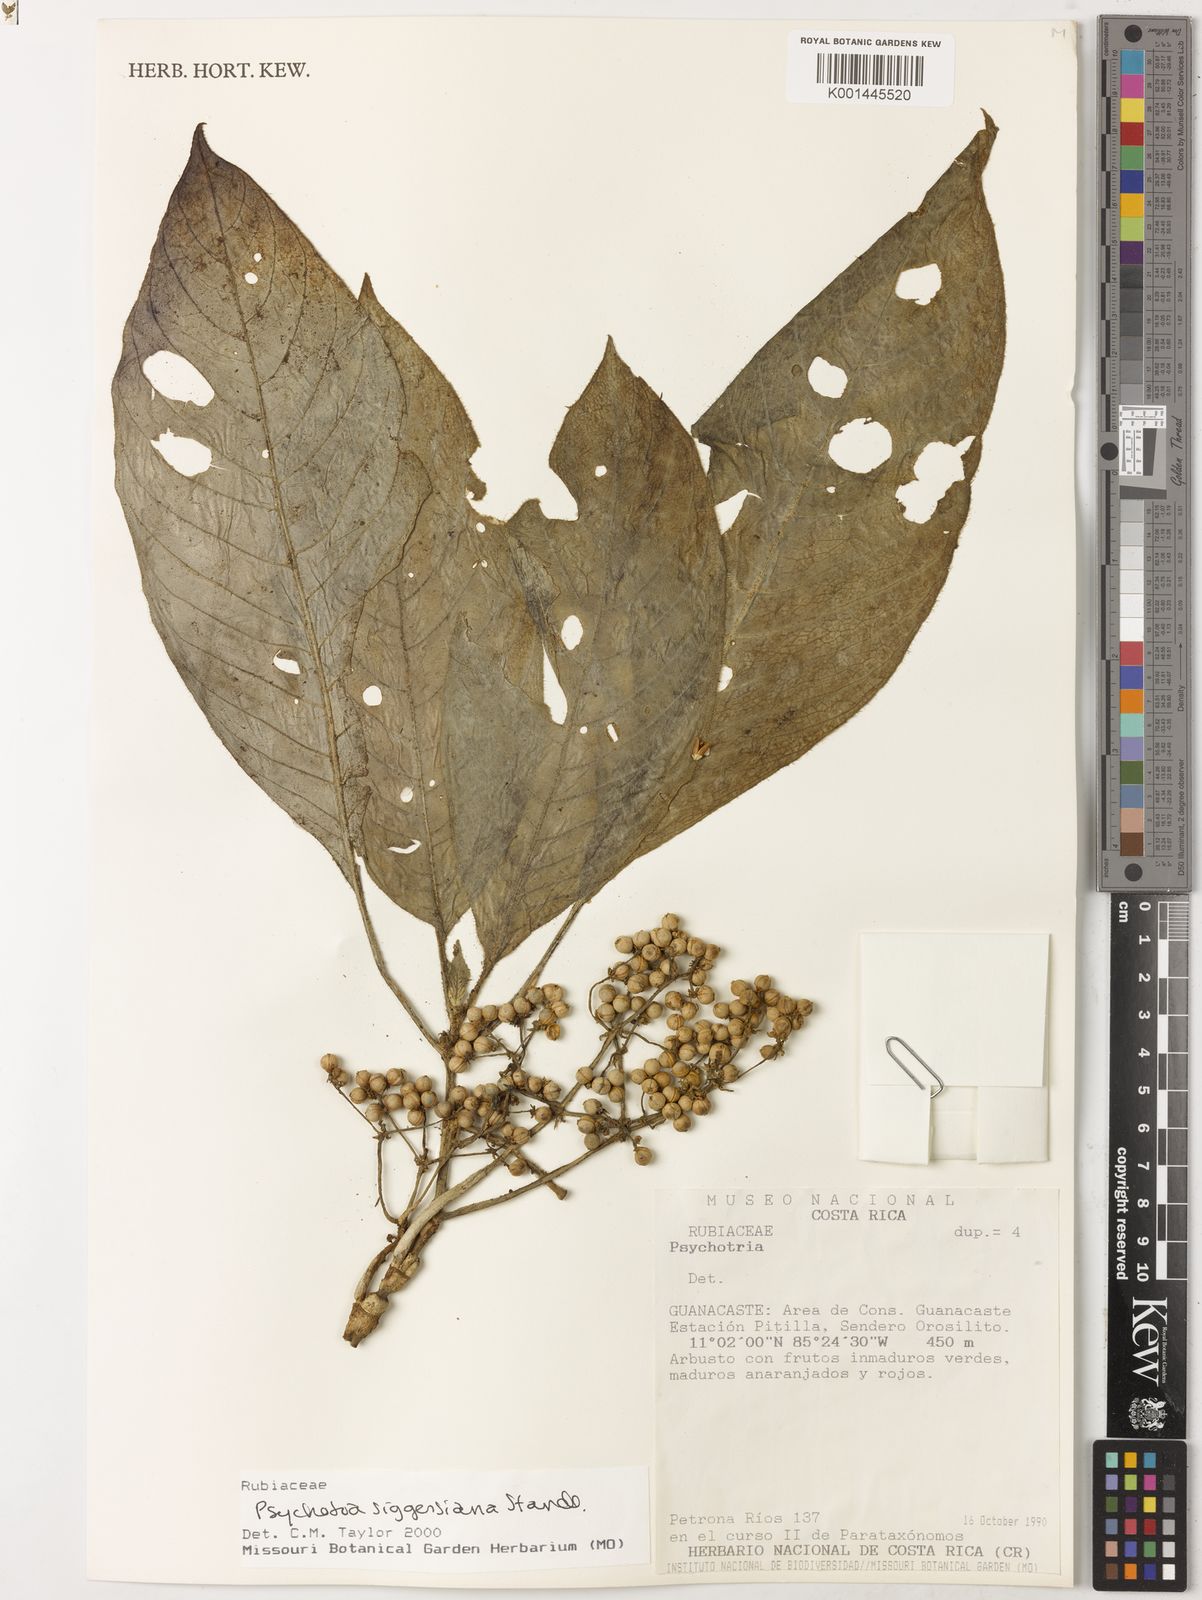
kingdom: Plantae
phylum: Tracheophyta
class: Magnoliopsida
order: Gentianales
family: Rubiaceae
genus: Notopleura
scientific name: Notopleura siggersiana
